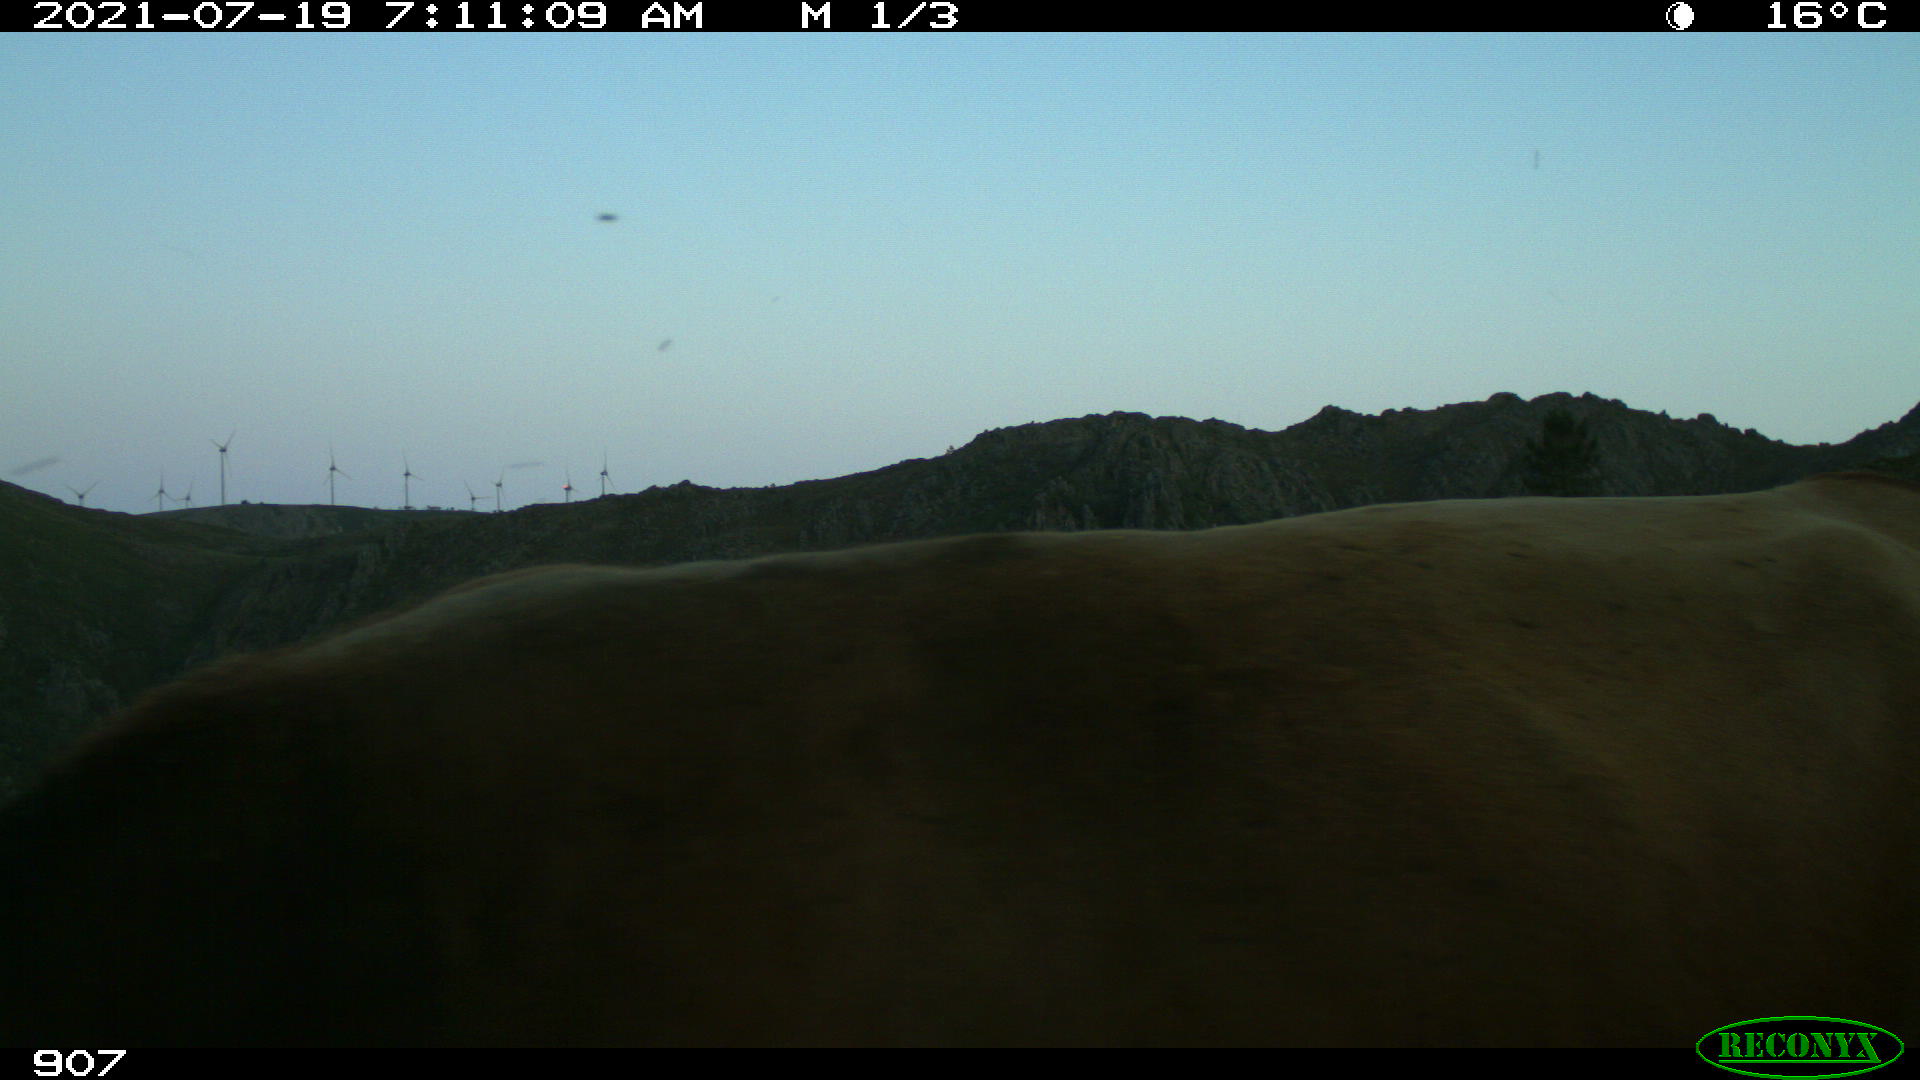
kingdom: Animalia
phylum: Chordata
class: Mammalia
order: Artiodactyla
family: Bovidae
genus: Bos
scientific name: Bos taurus
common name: Domesticated cattle
